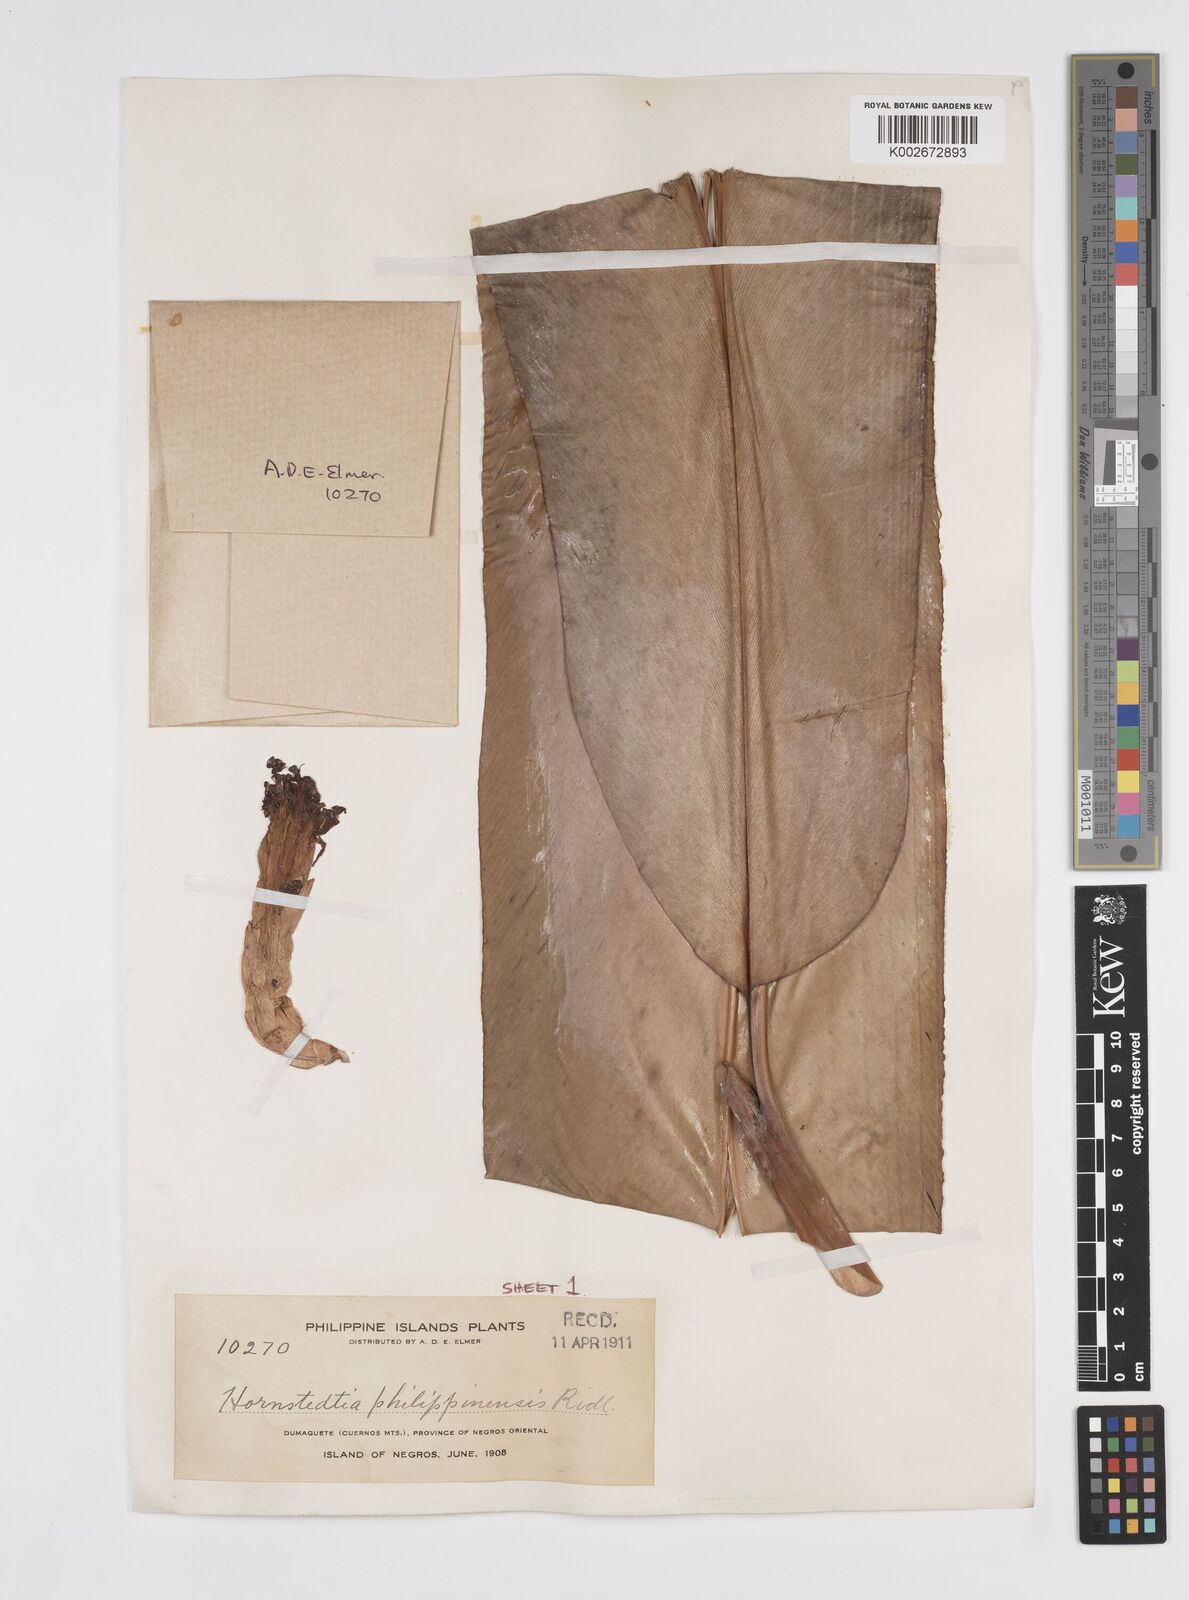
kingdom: Plantae
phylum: Tracheophyta
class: Liliopsida
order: Zingiberales
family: Zingiberaceae
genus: Etlingera
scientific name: Etlingera philippinensis
